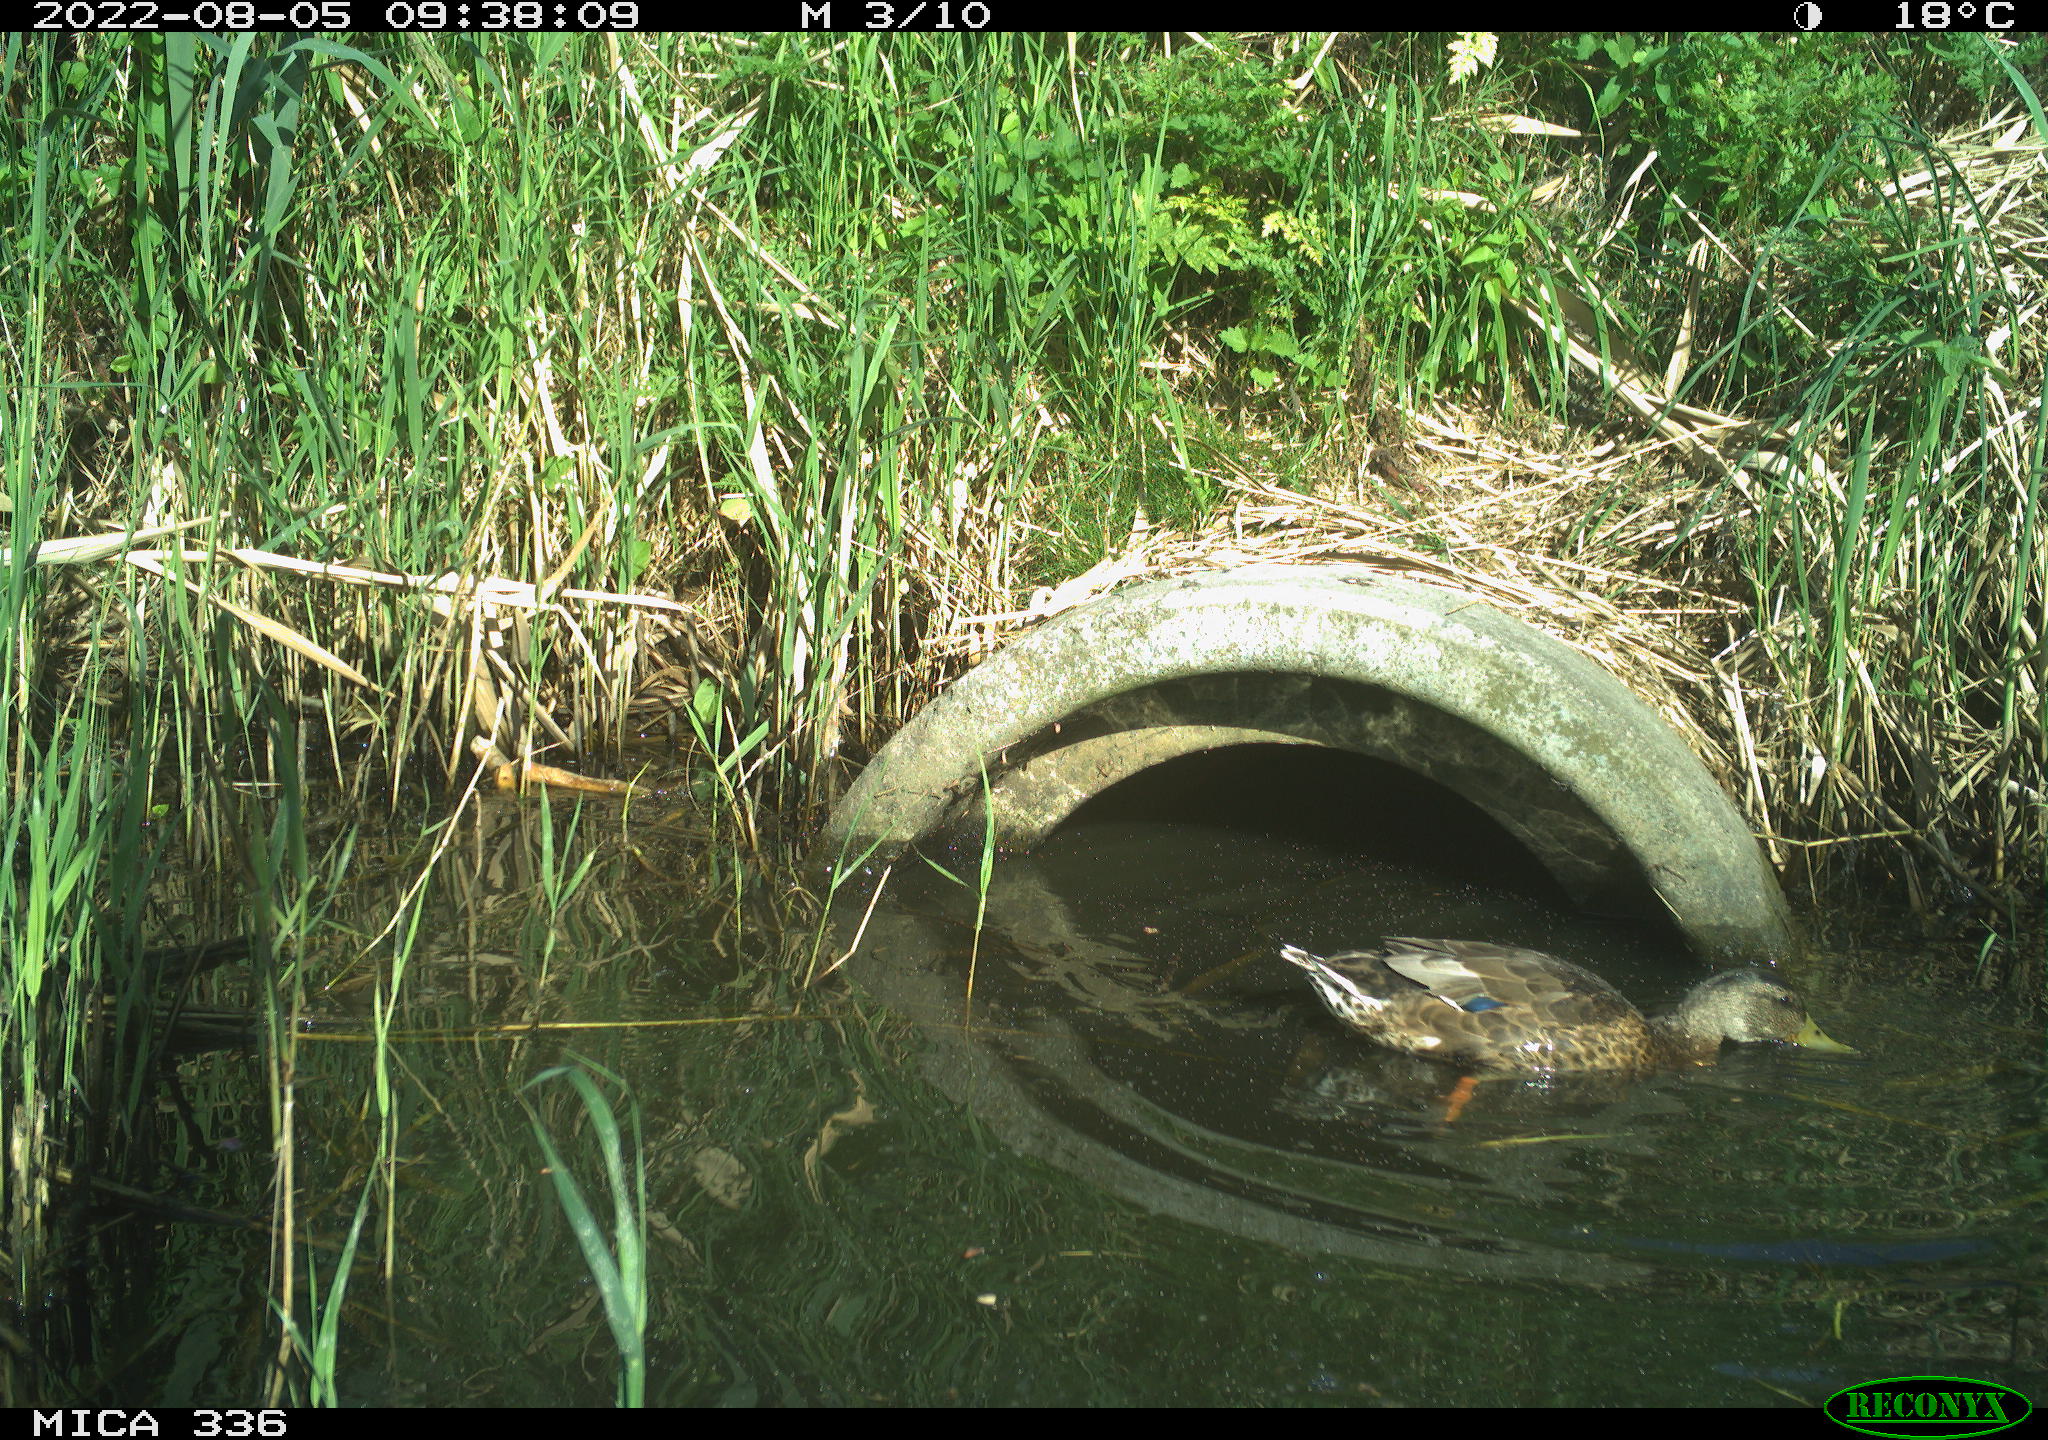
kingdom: Animalia
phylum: Chordata
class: Aves
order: Anseriformes
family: Anatidae
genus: Anas
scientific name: Anas platyrhynchos
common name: Mallard
